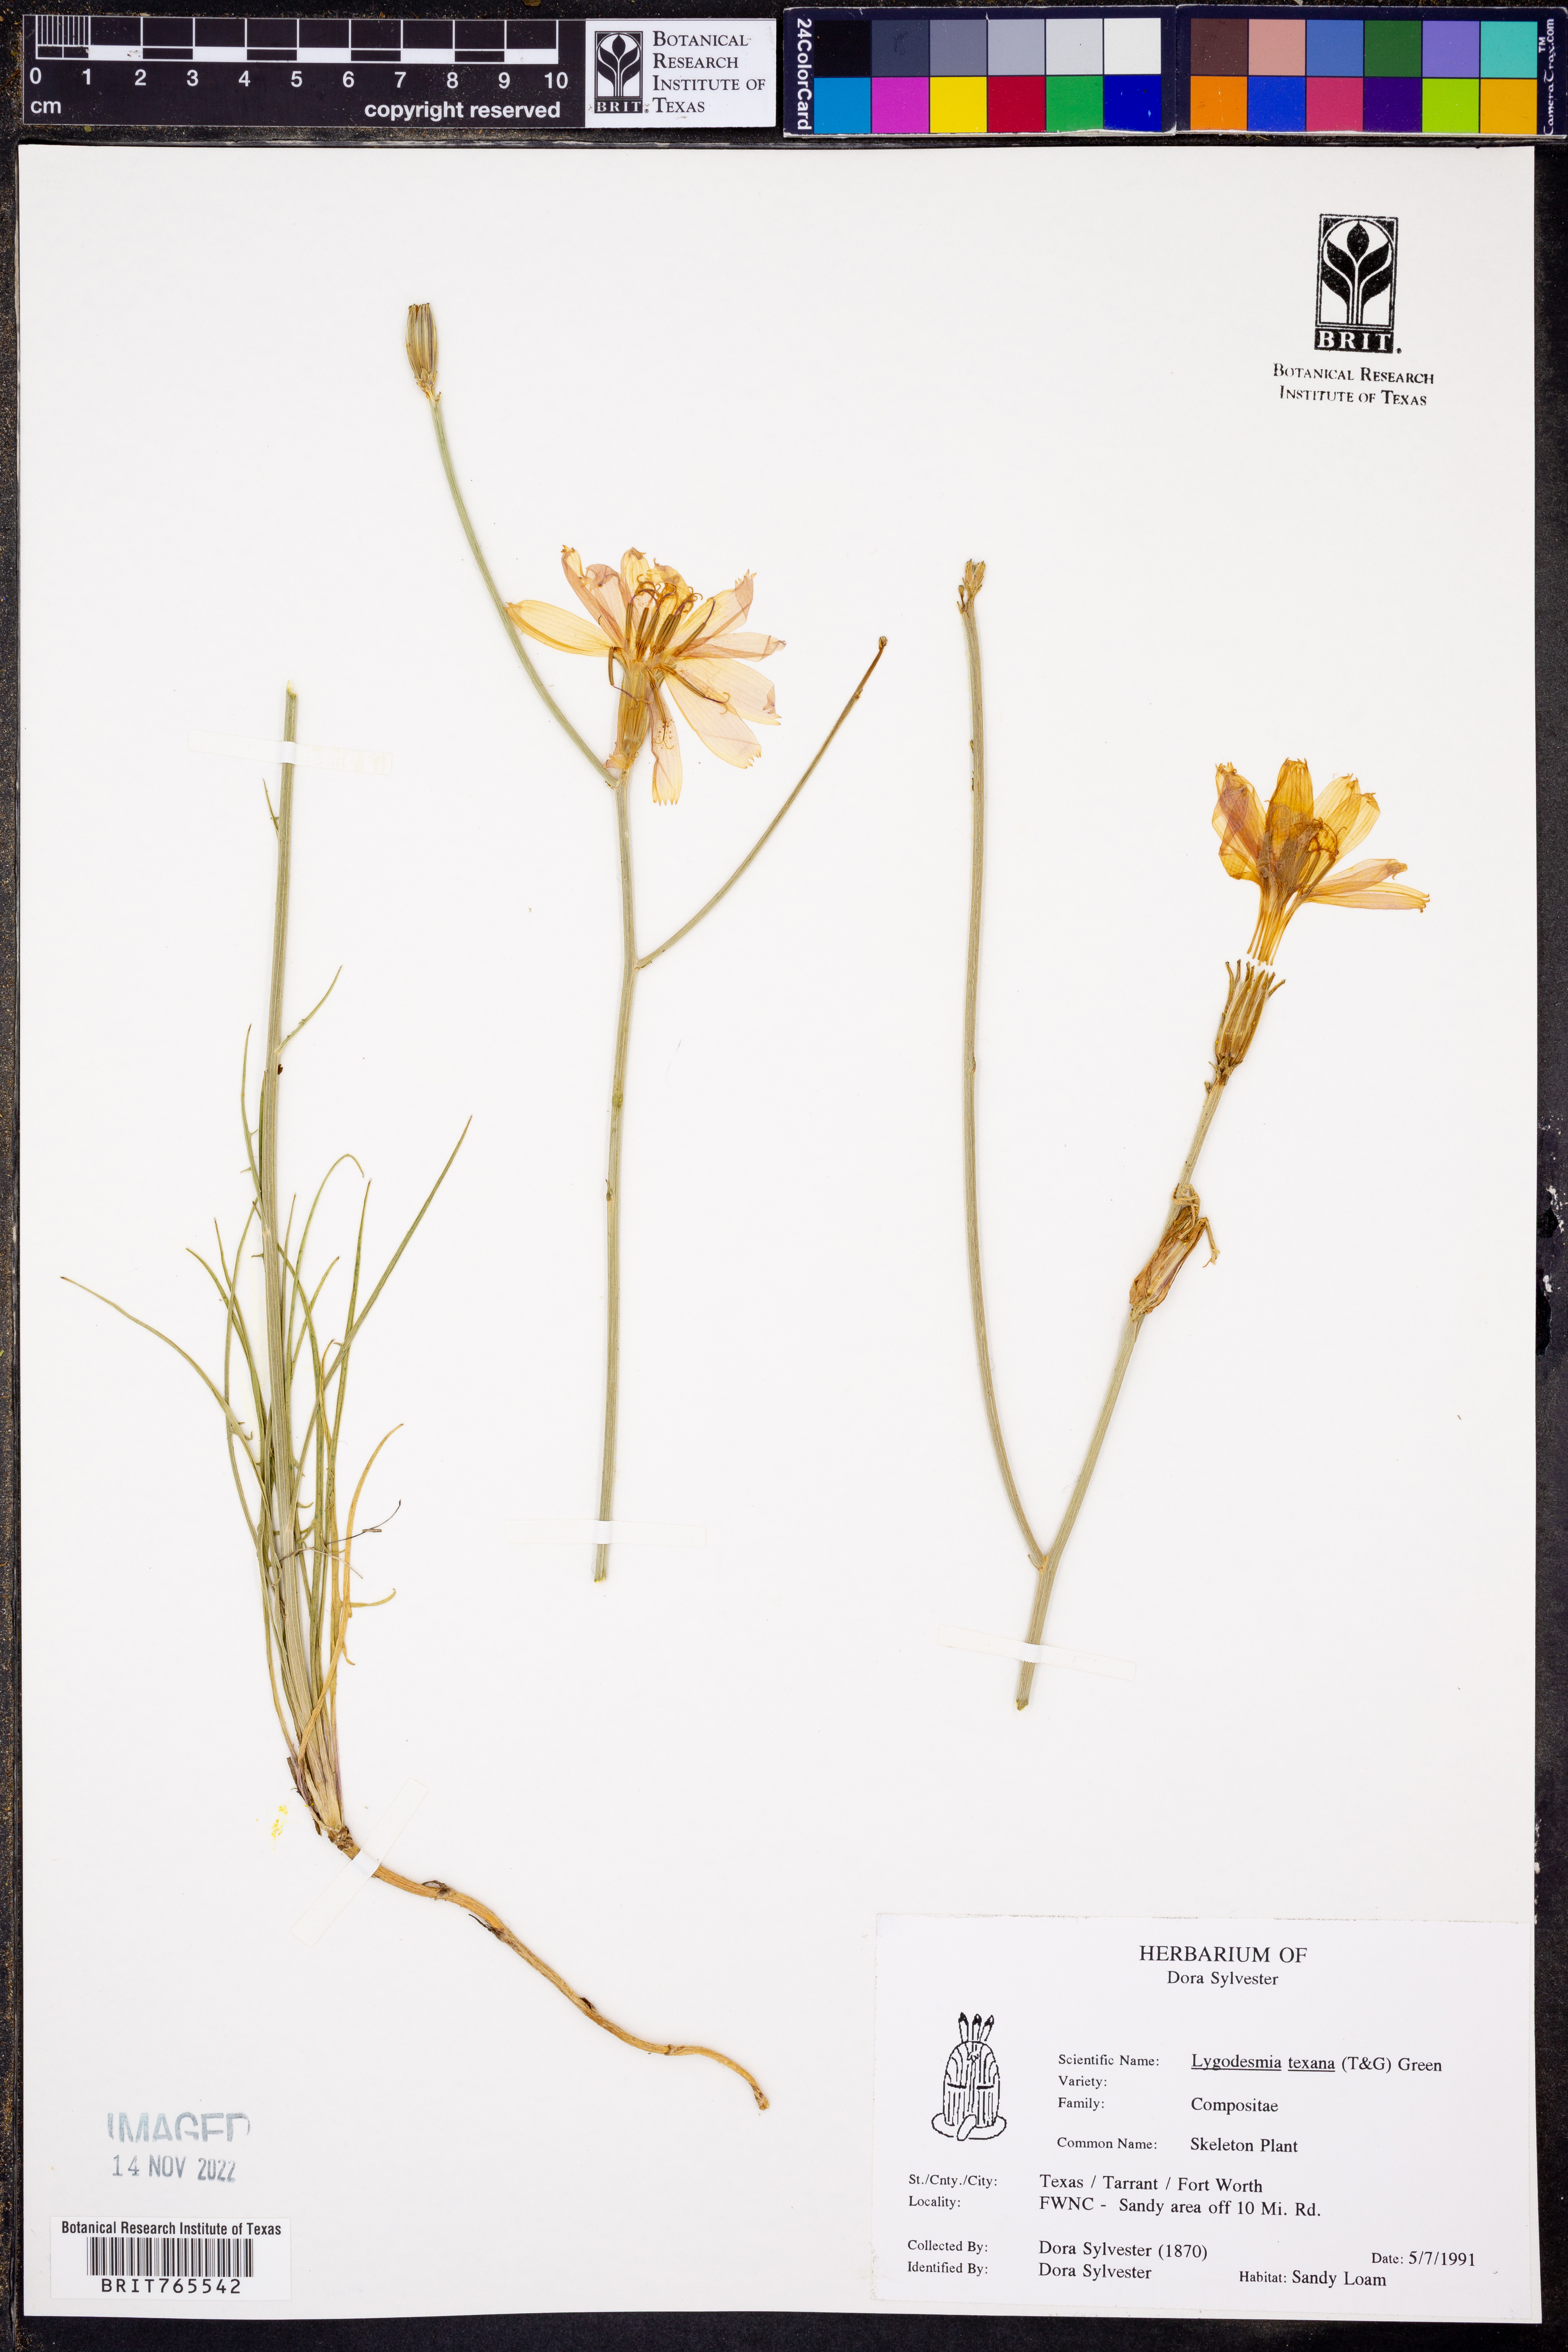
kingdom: Plantae
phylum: Tracheophyta
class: Magnoliopsida
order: Asterales
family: Asteraceae
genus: Lygodesmia
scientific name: Lygodesmia texana
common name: Texas skeleton-plant
